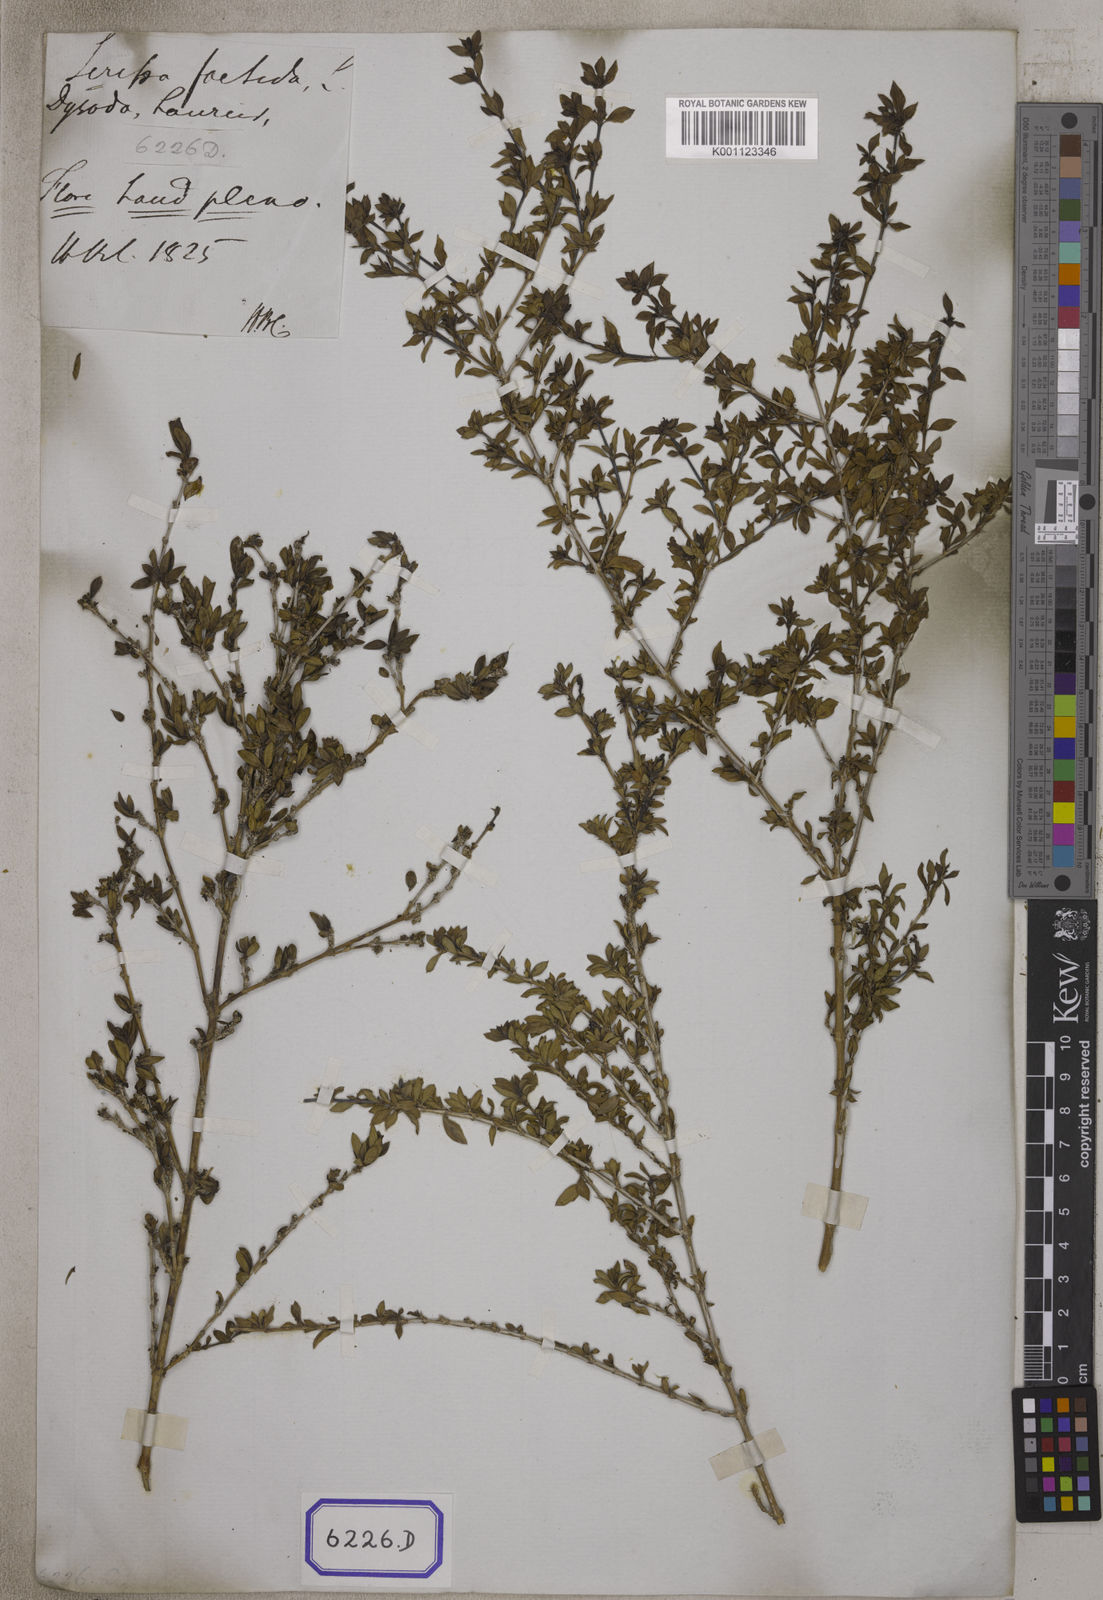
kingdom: Plantae
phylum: Tracheophyta
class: Magnoliopsida
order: Gentianales
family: Rubiaceae
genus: Buchozia
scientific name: Buchozia
